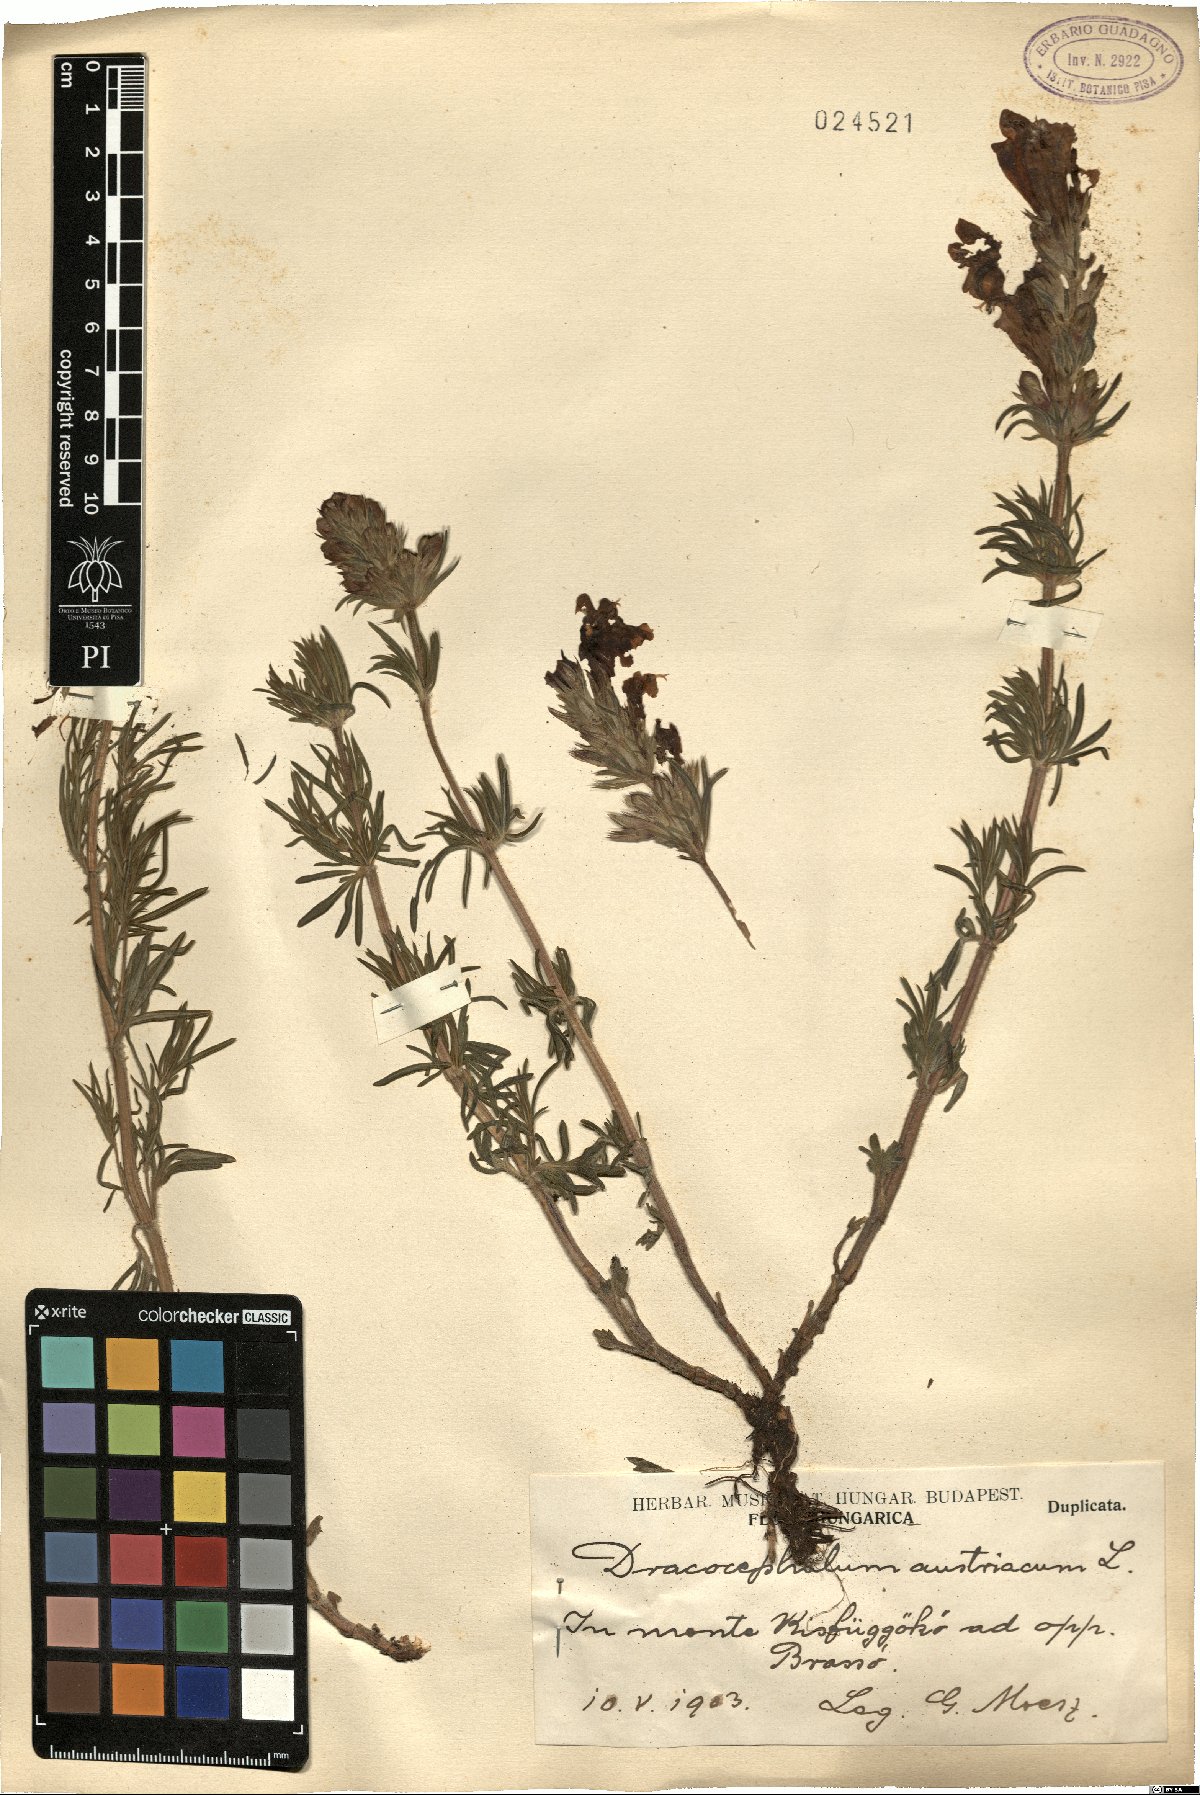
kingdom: Plantae
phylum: Tracheophyta
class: Magnoliopsida
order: Lamiales
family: Lamiaceae
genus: Dracocephalum
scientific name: Dracocephalum austriacum
